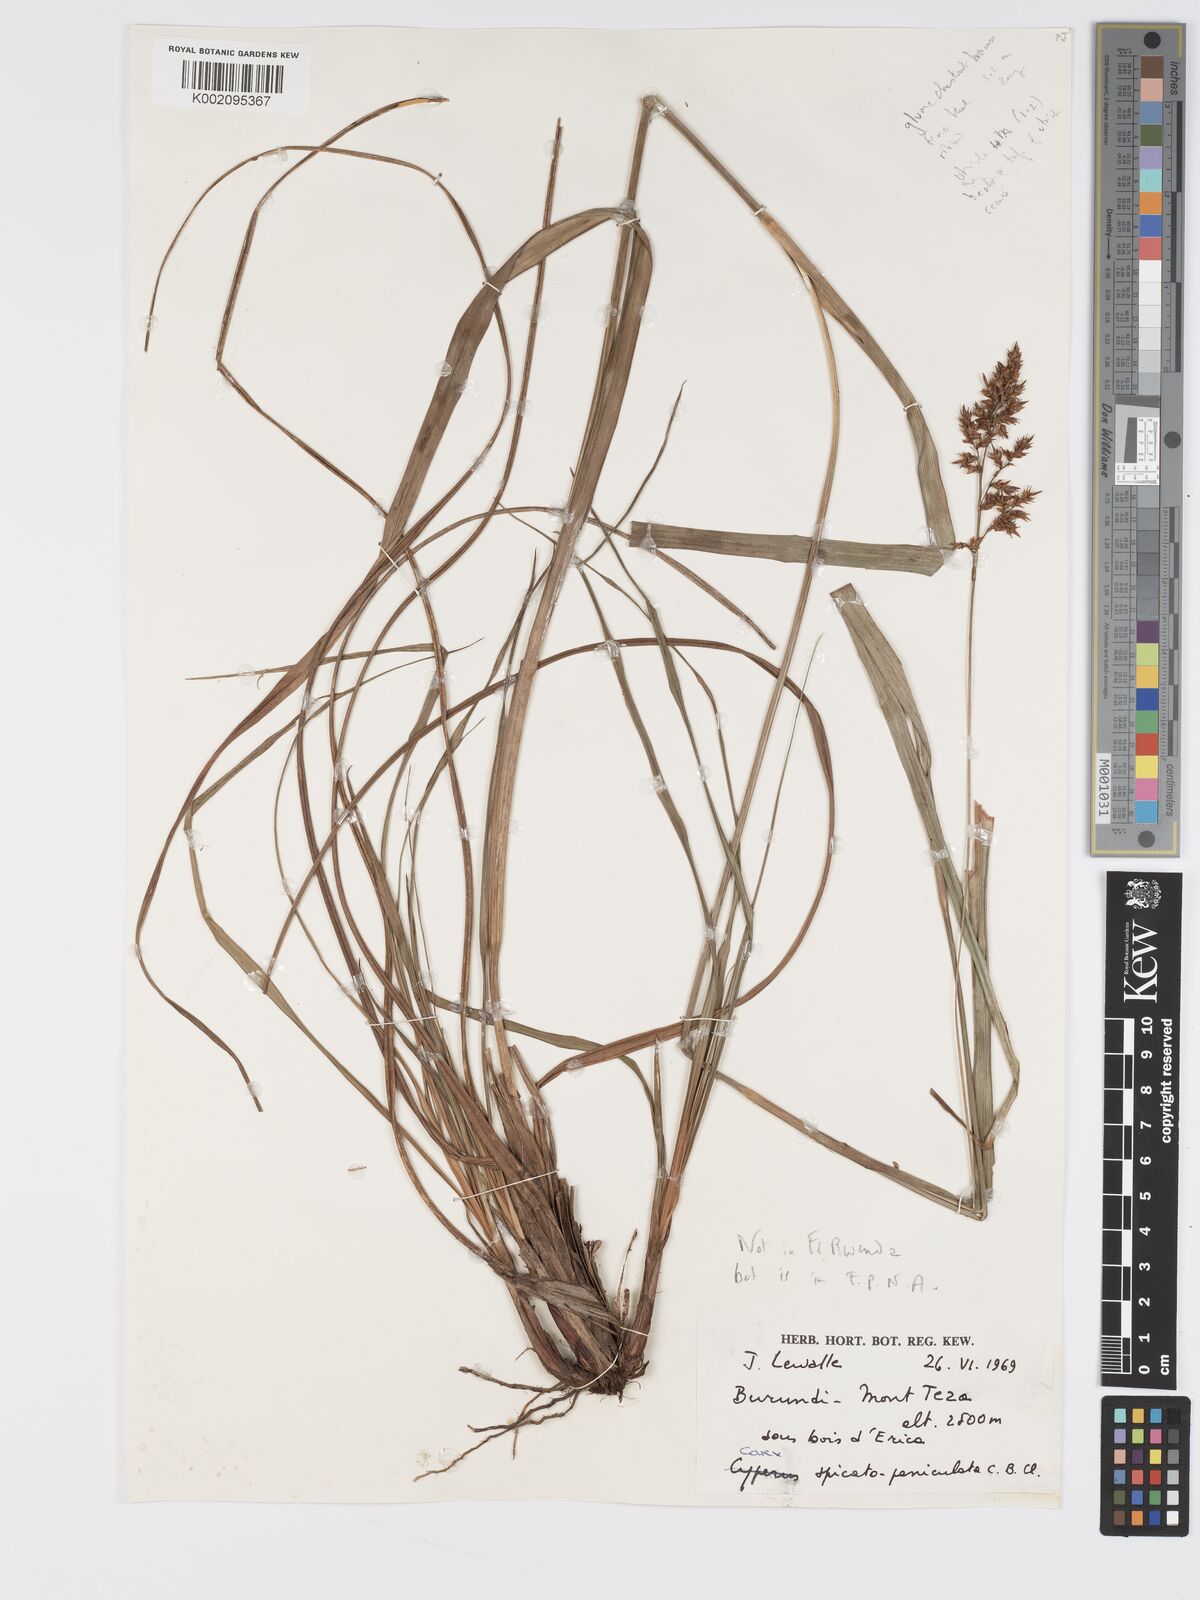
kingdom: Plantae
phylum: Tracheophyta
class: Liliopsida
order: Poales
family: Cyperaceae
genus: Carex
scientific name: Carex spicatopaniculata
